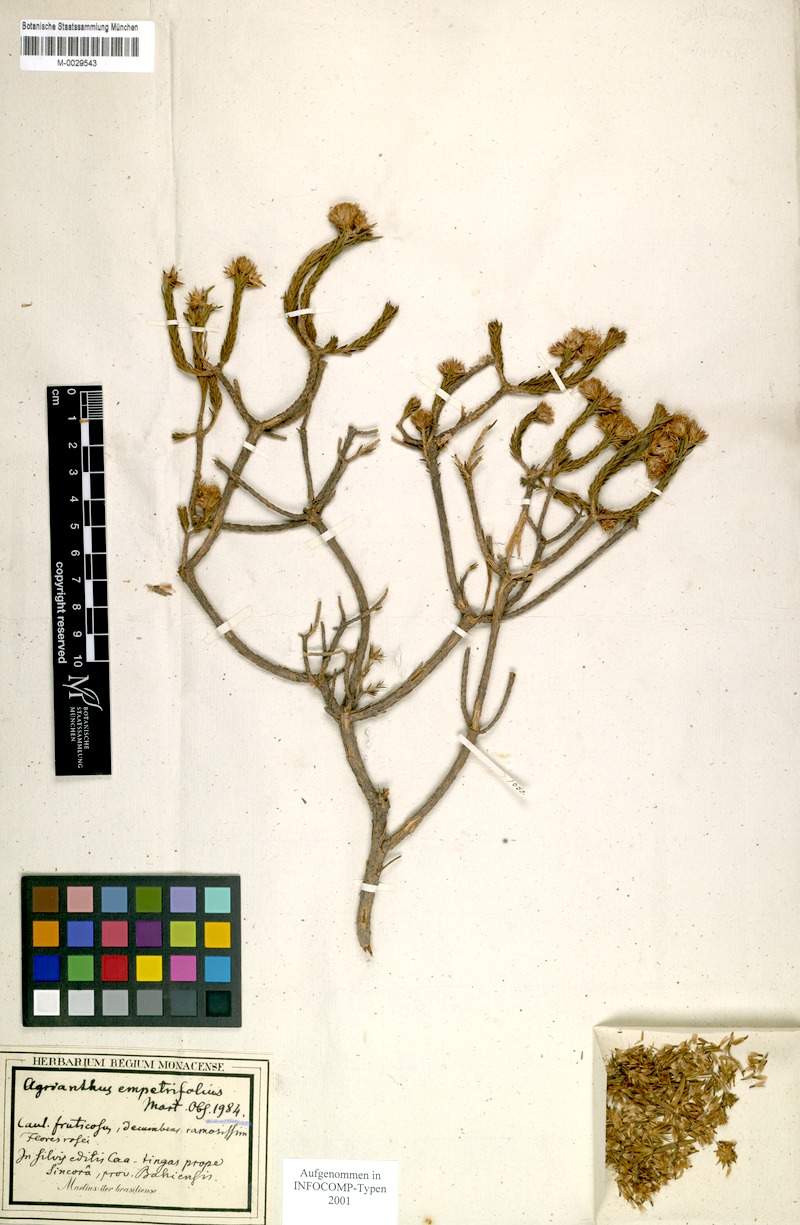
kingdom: Plantae
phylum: Tracheophyta
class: Magnoliopsida
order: Asterales
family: Asteraceae
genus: Agrianthus
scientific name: Agrianthus empetrifolius
